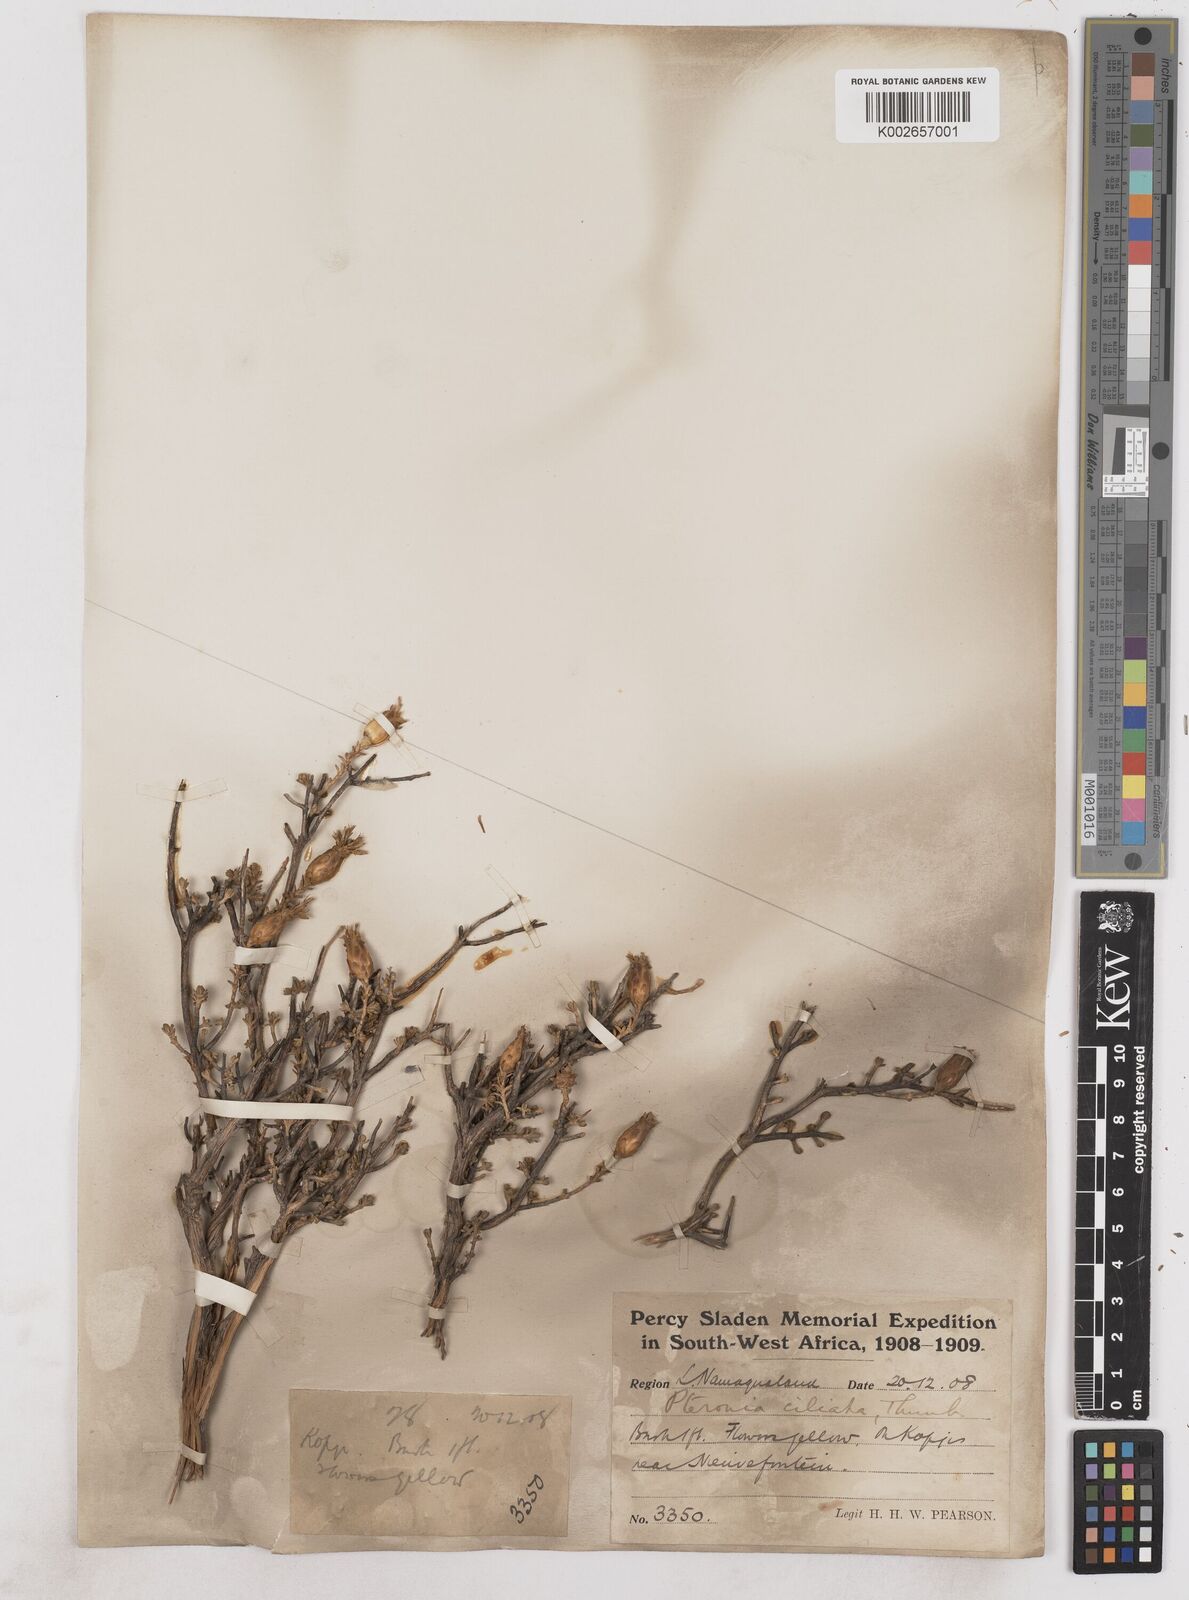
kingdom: Plantae
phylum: Tracheophyta
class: Magnoliopsida
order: Asterales
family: Asteraceae
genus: Pteronia
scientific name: Pteronia ciliata
